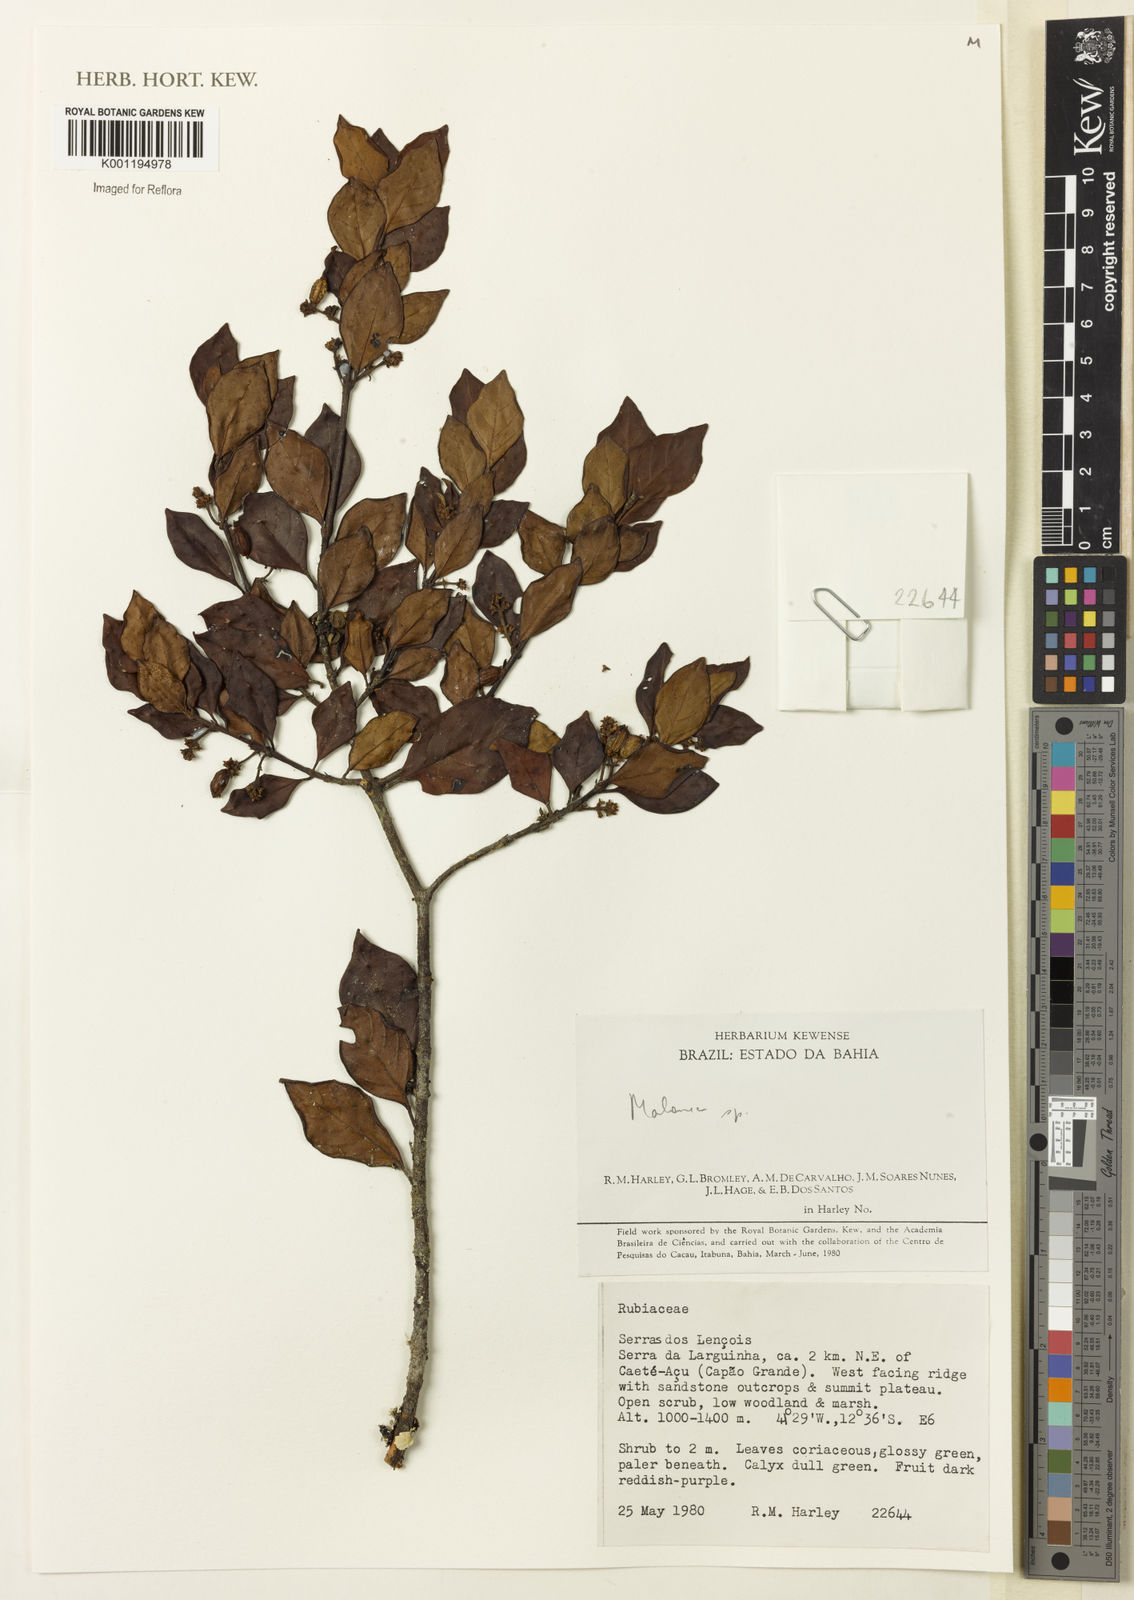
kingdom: Plantae
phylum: Tracheophyta
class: Magnoliopsida
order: Gentianales
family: Rubiaceae
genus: Malanea
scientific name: Malanea
